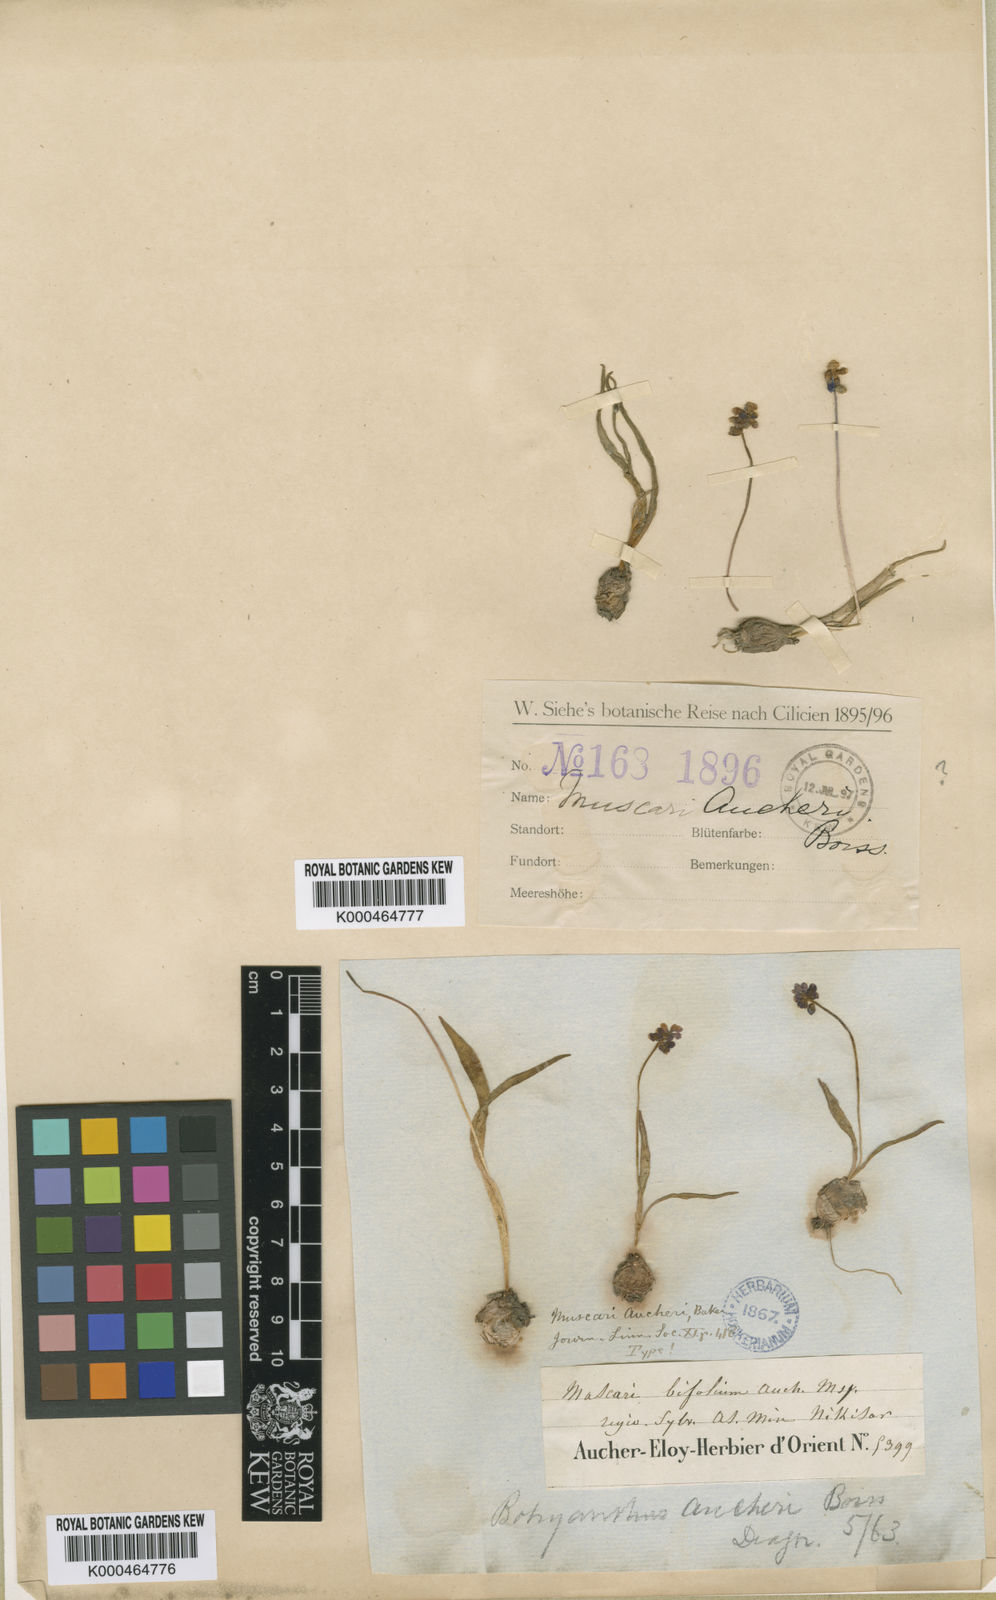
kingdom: Plantae
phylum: Tracheophyta
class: Liliopsida
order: Asparagales
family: Asparagaceae
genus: Muscari
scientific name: Muscari aucheri
